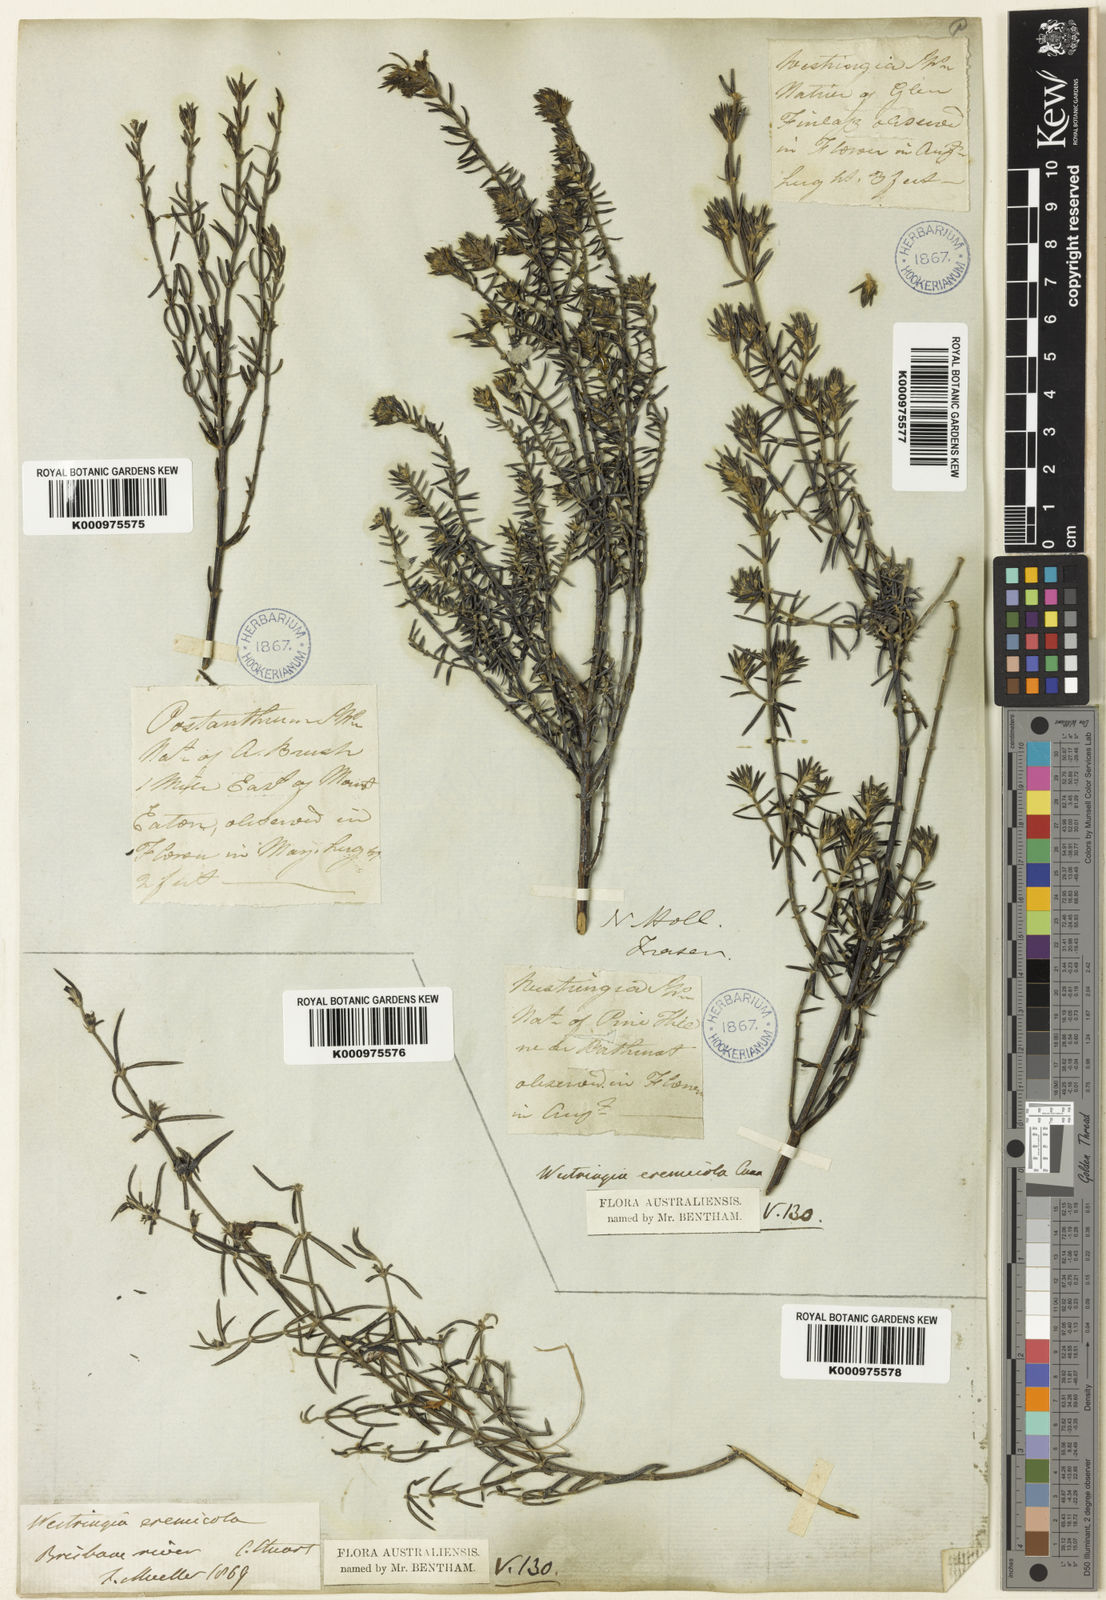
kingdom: Plantae
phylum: Tracheophyta
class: Magnoliopsida
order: Lamiales
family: Lamiaceae
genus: Westringia
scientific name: Westringia eremicola
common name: Slender western-rosemary
